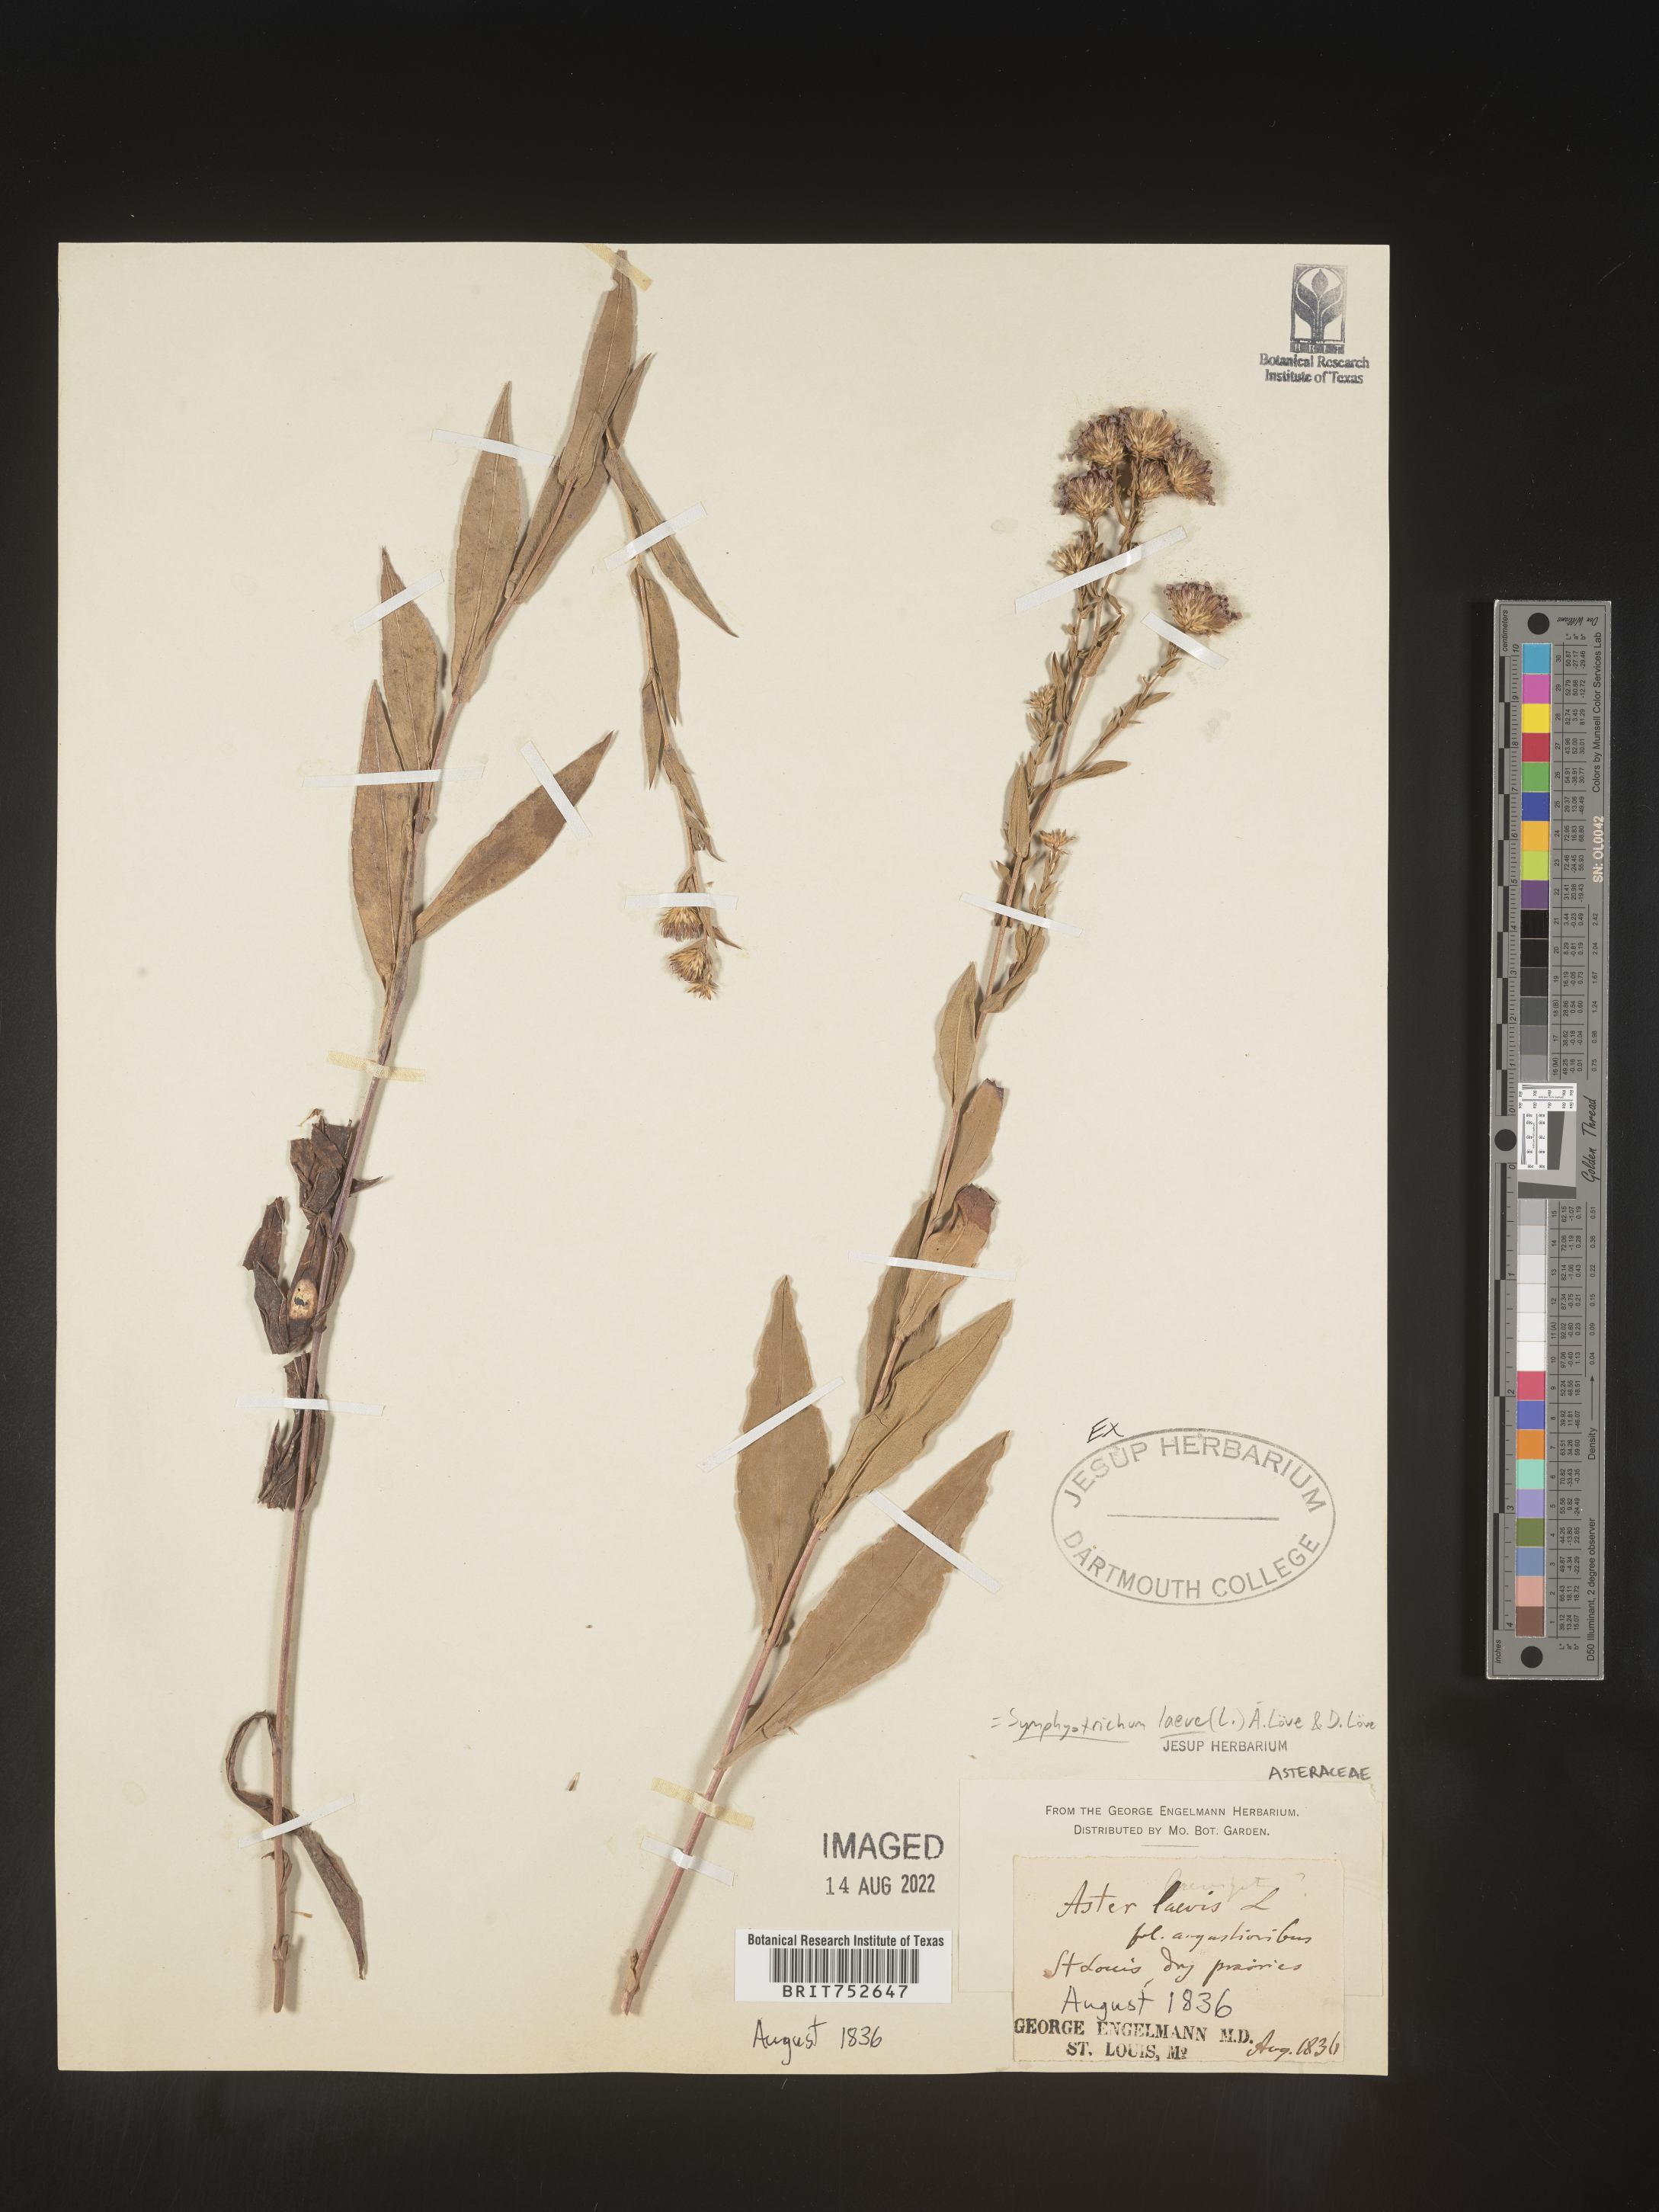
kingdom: Plantae
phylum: Tracheophyta
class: Magnoliopsida
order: Asterales
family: Asteraceae
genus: Symphyotrichum
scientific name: Symphyotrichum laeve
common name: Glaucous aster
